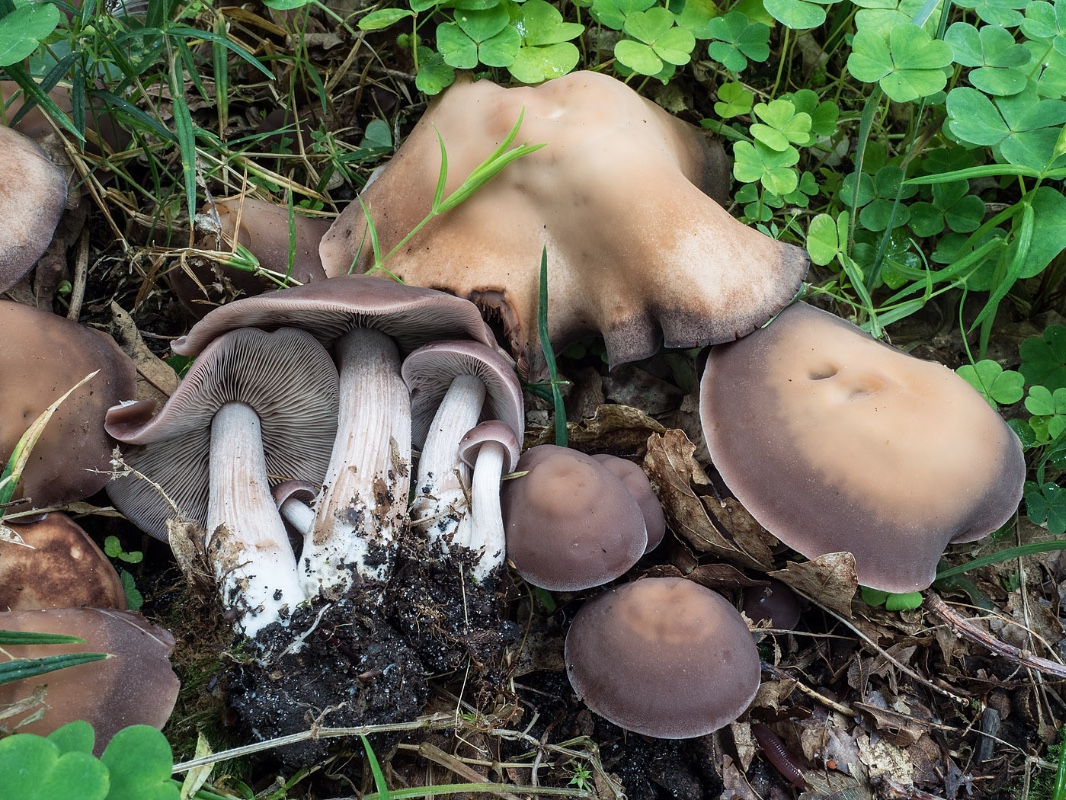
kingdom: Fungi
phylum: Basidiomycota
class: Agaricomycetes
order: Agaricales
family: Psathyrellaceae
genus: Homophron
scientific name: Homophron spadiceum
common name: daddelbrun mørkhat
